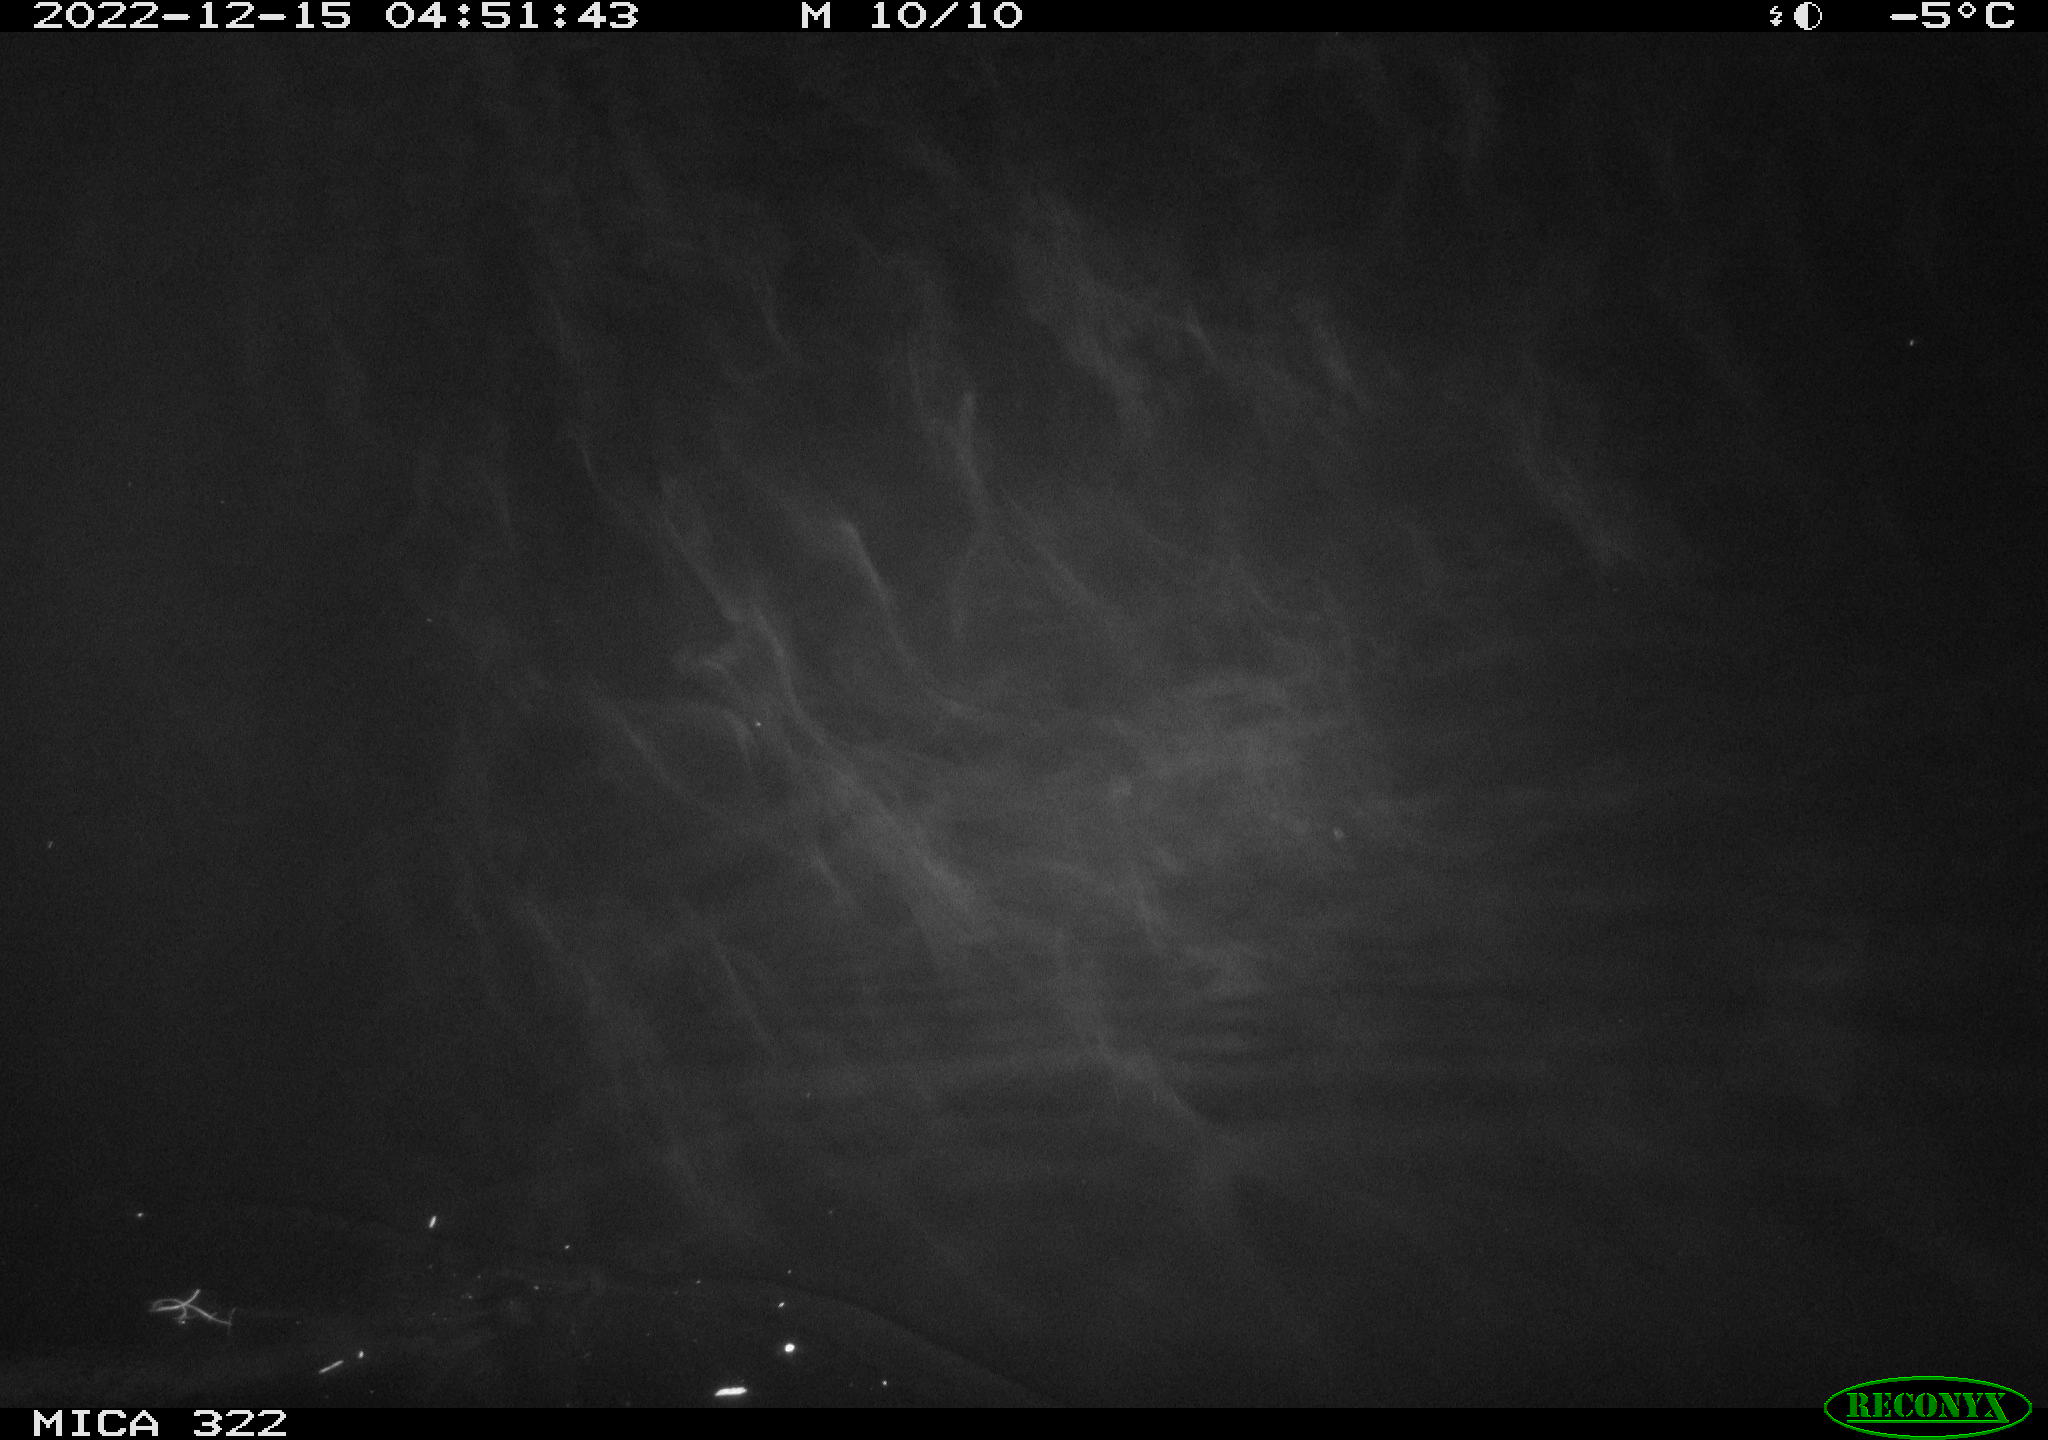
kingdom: Animalia
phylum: Chordata
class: Aves
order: Anseriformes
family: Anatidae
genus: Anas
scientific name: Anas
